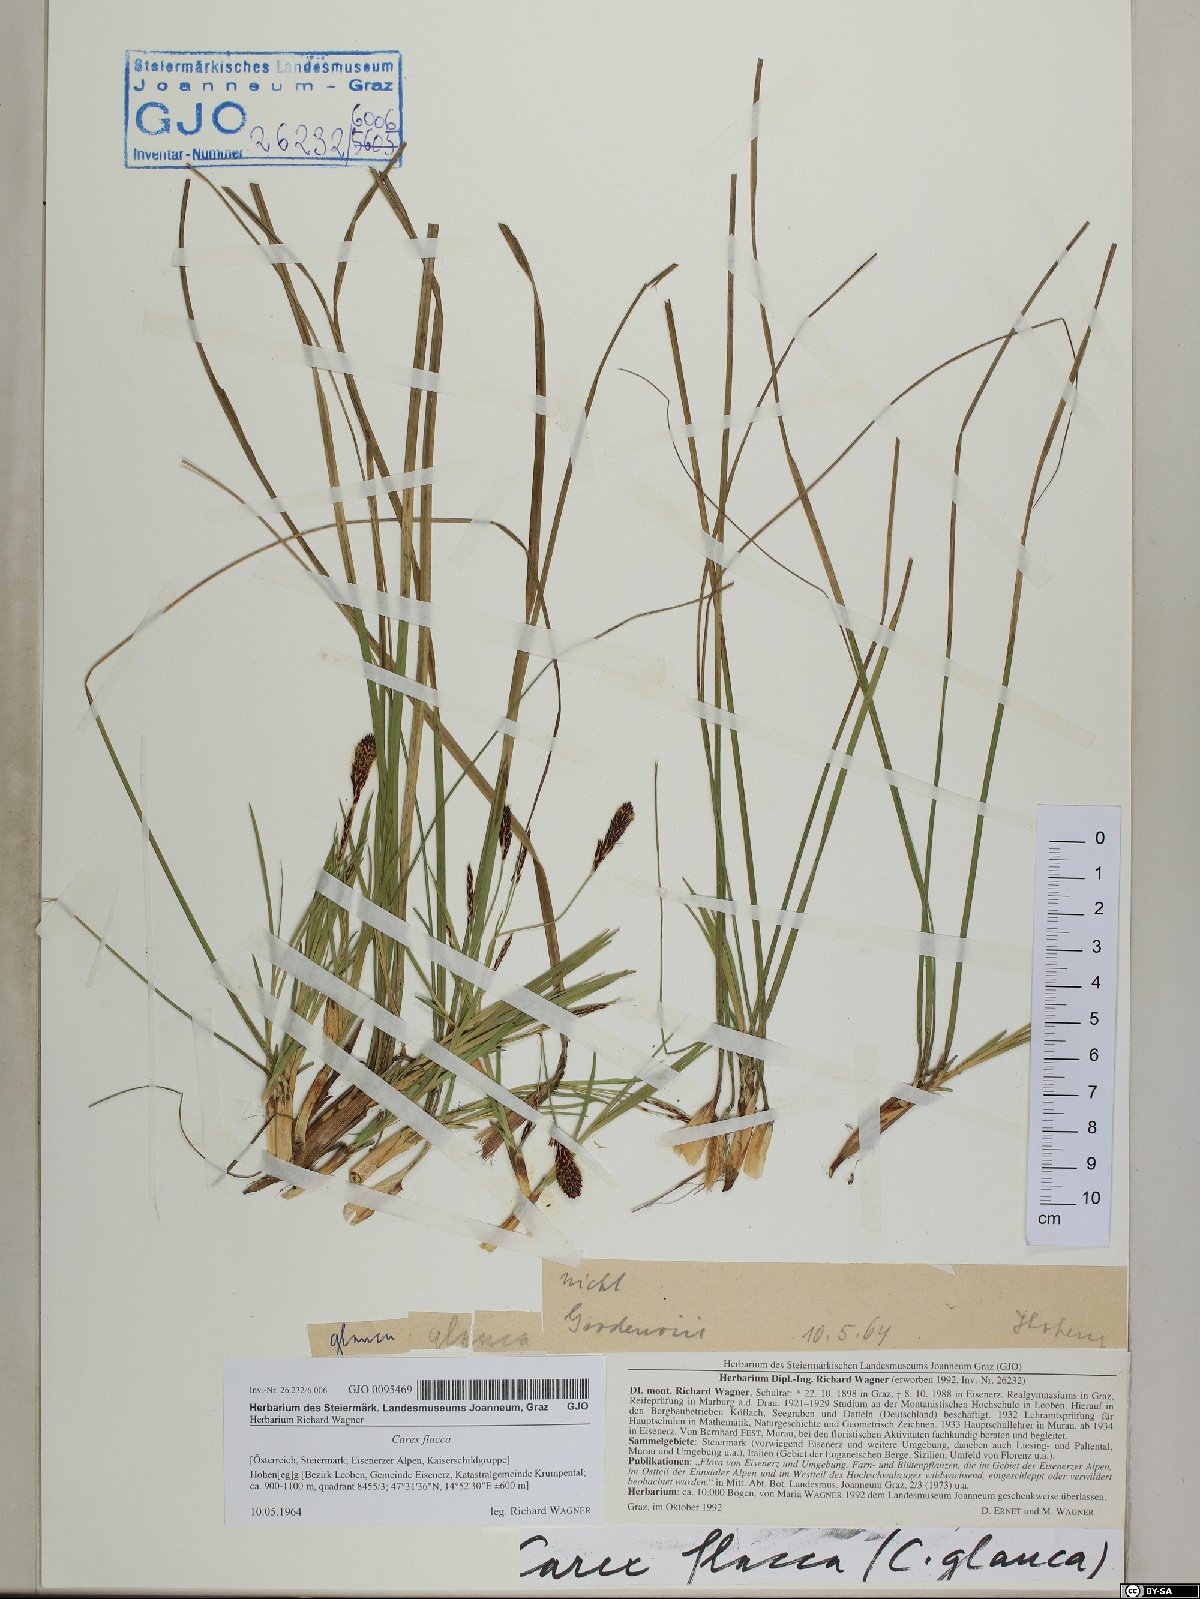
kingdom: Plantae
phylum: Tracheophyta
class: Liliopsida
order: Poales
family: Cyperaceae
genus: Carex
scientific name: Carex flacca
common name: Glaucous sedge
